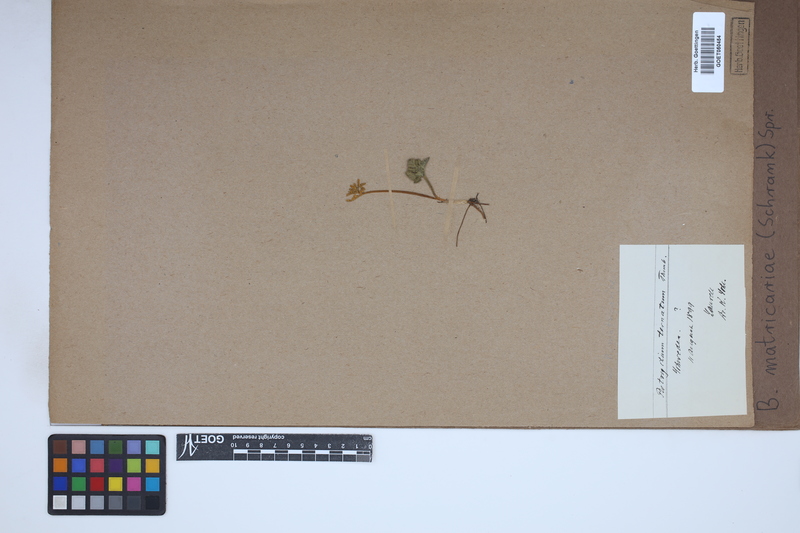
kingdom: Plantae
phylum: Tracheophyta
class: Polypodiopsida
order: Ophioglossales
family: Ophioglossaceae
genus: Sceptridium
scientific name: Sceptridium multifidum
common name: Leathery grape fern
